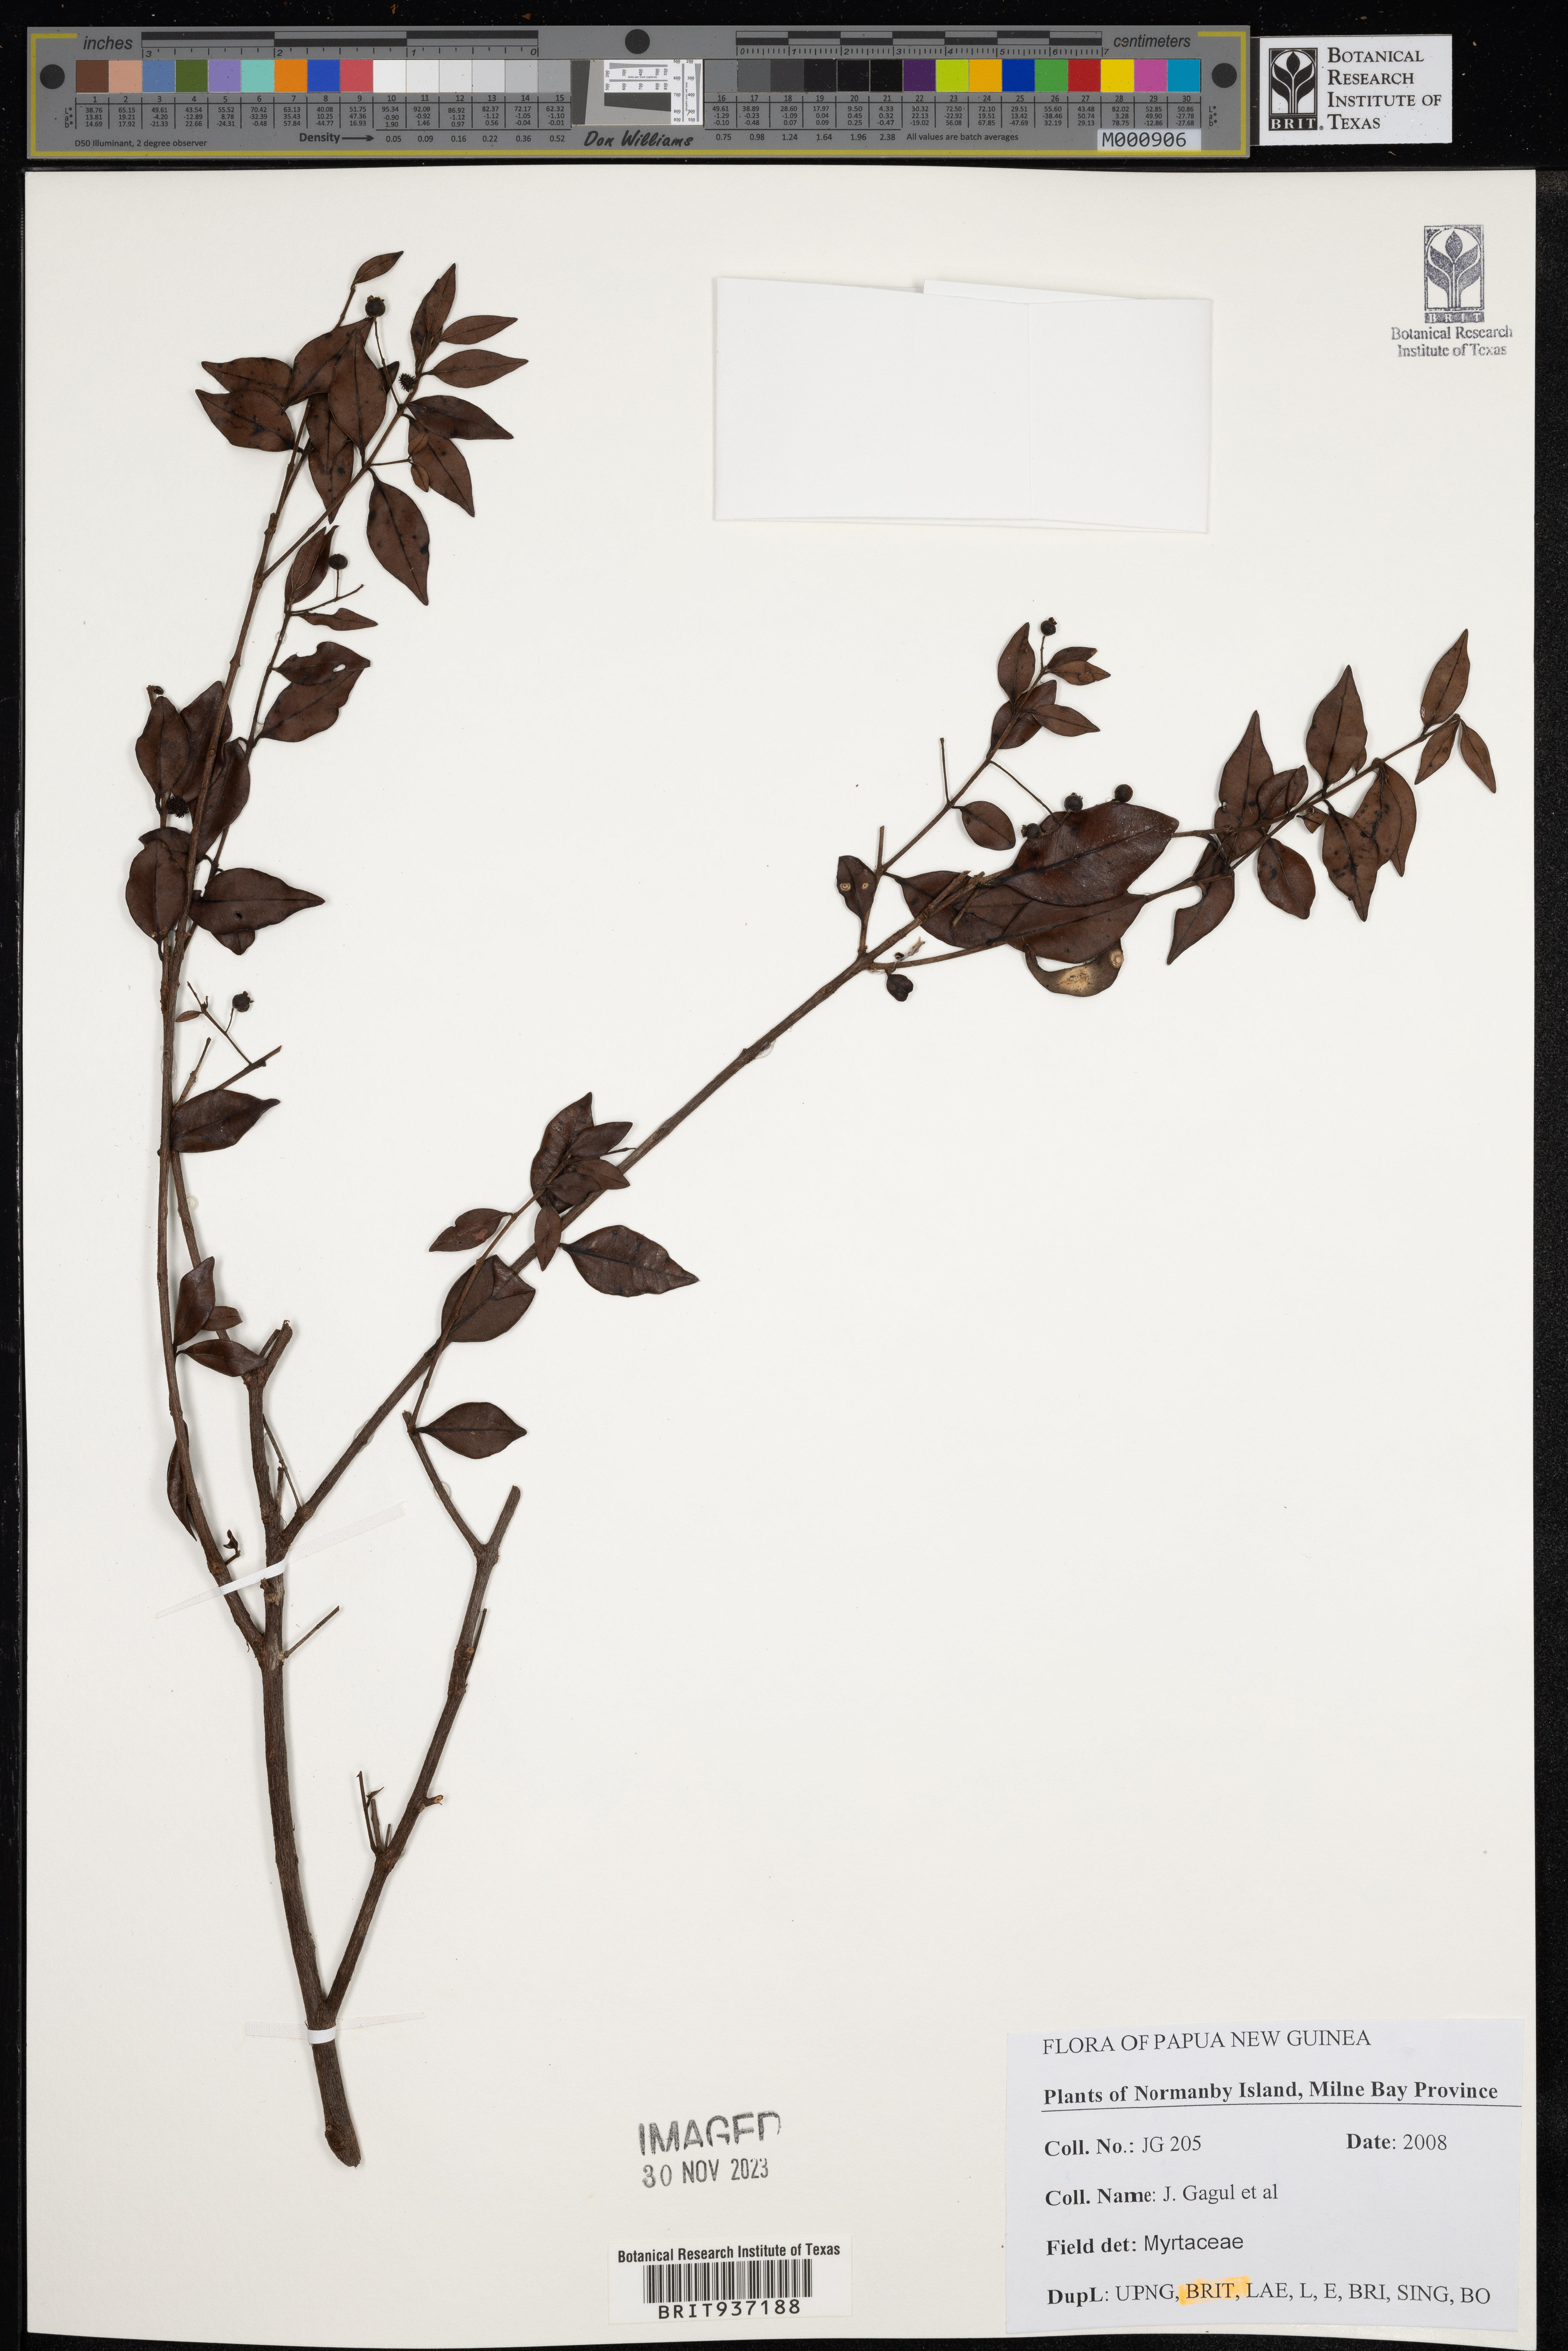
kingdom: Plantae
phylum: Tracheophyta
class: Magnoliopsida
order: Myrtales
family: Myrtaceae
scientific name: Myrtaceae
